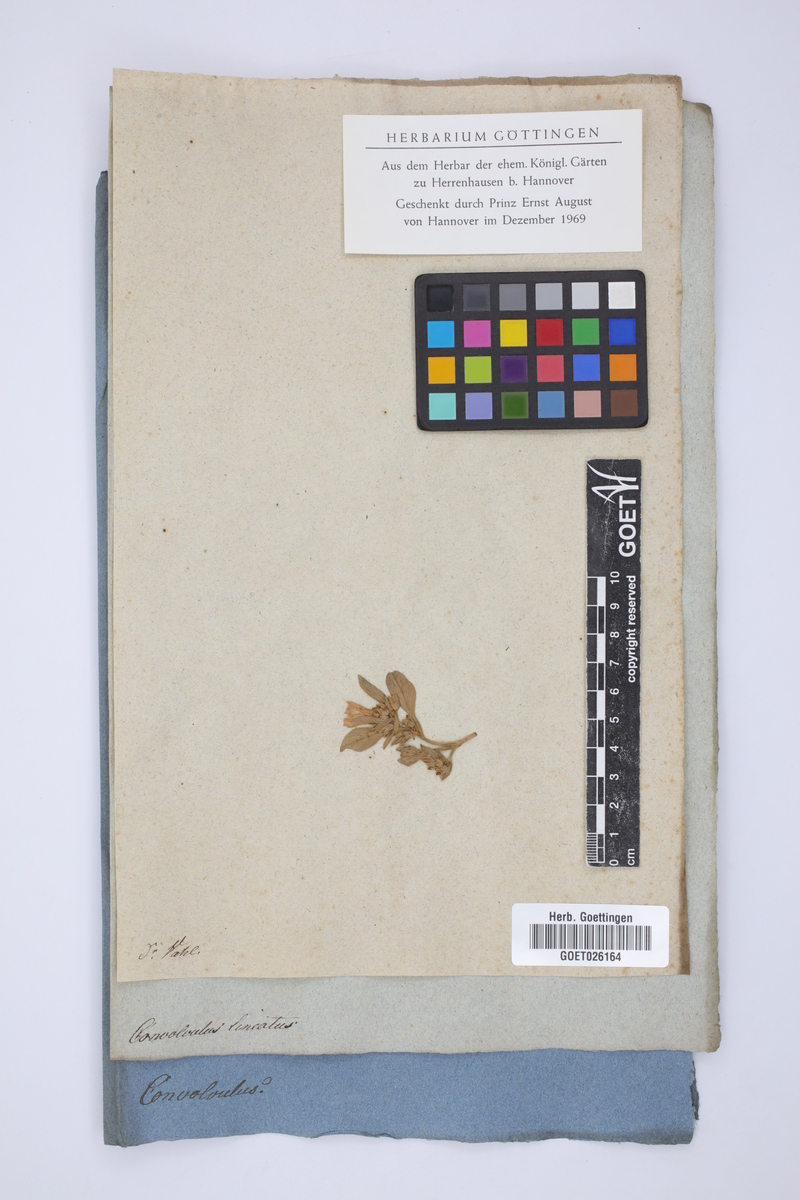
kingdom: Plantae
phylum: Tracheophyta
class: Magnoliopsida
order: Solanales
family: Convolvulaceae
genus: Convolvulus
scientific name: Convolvulus lineatus
